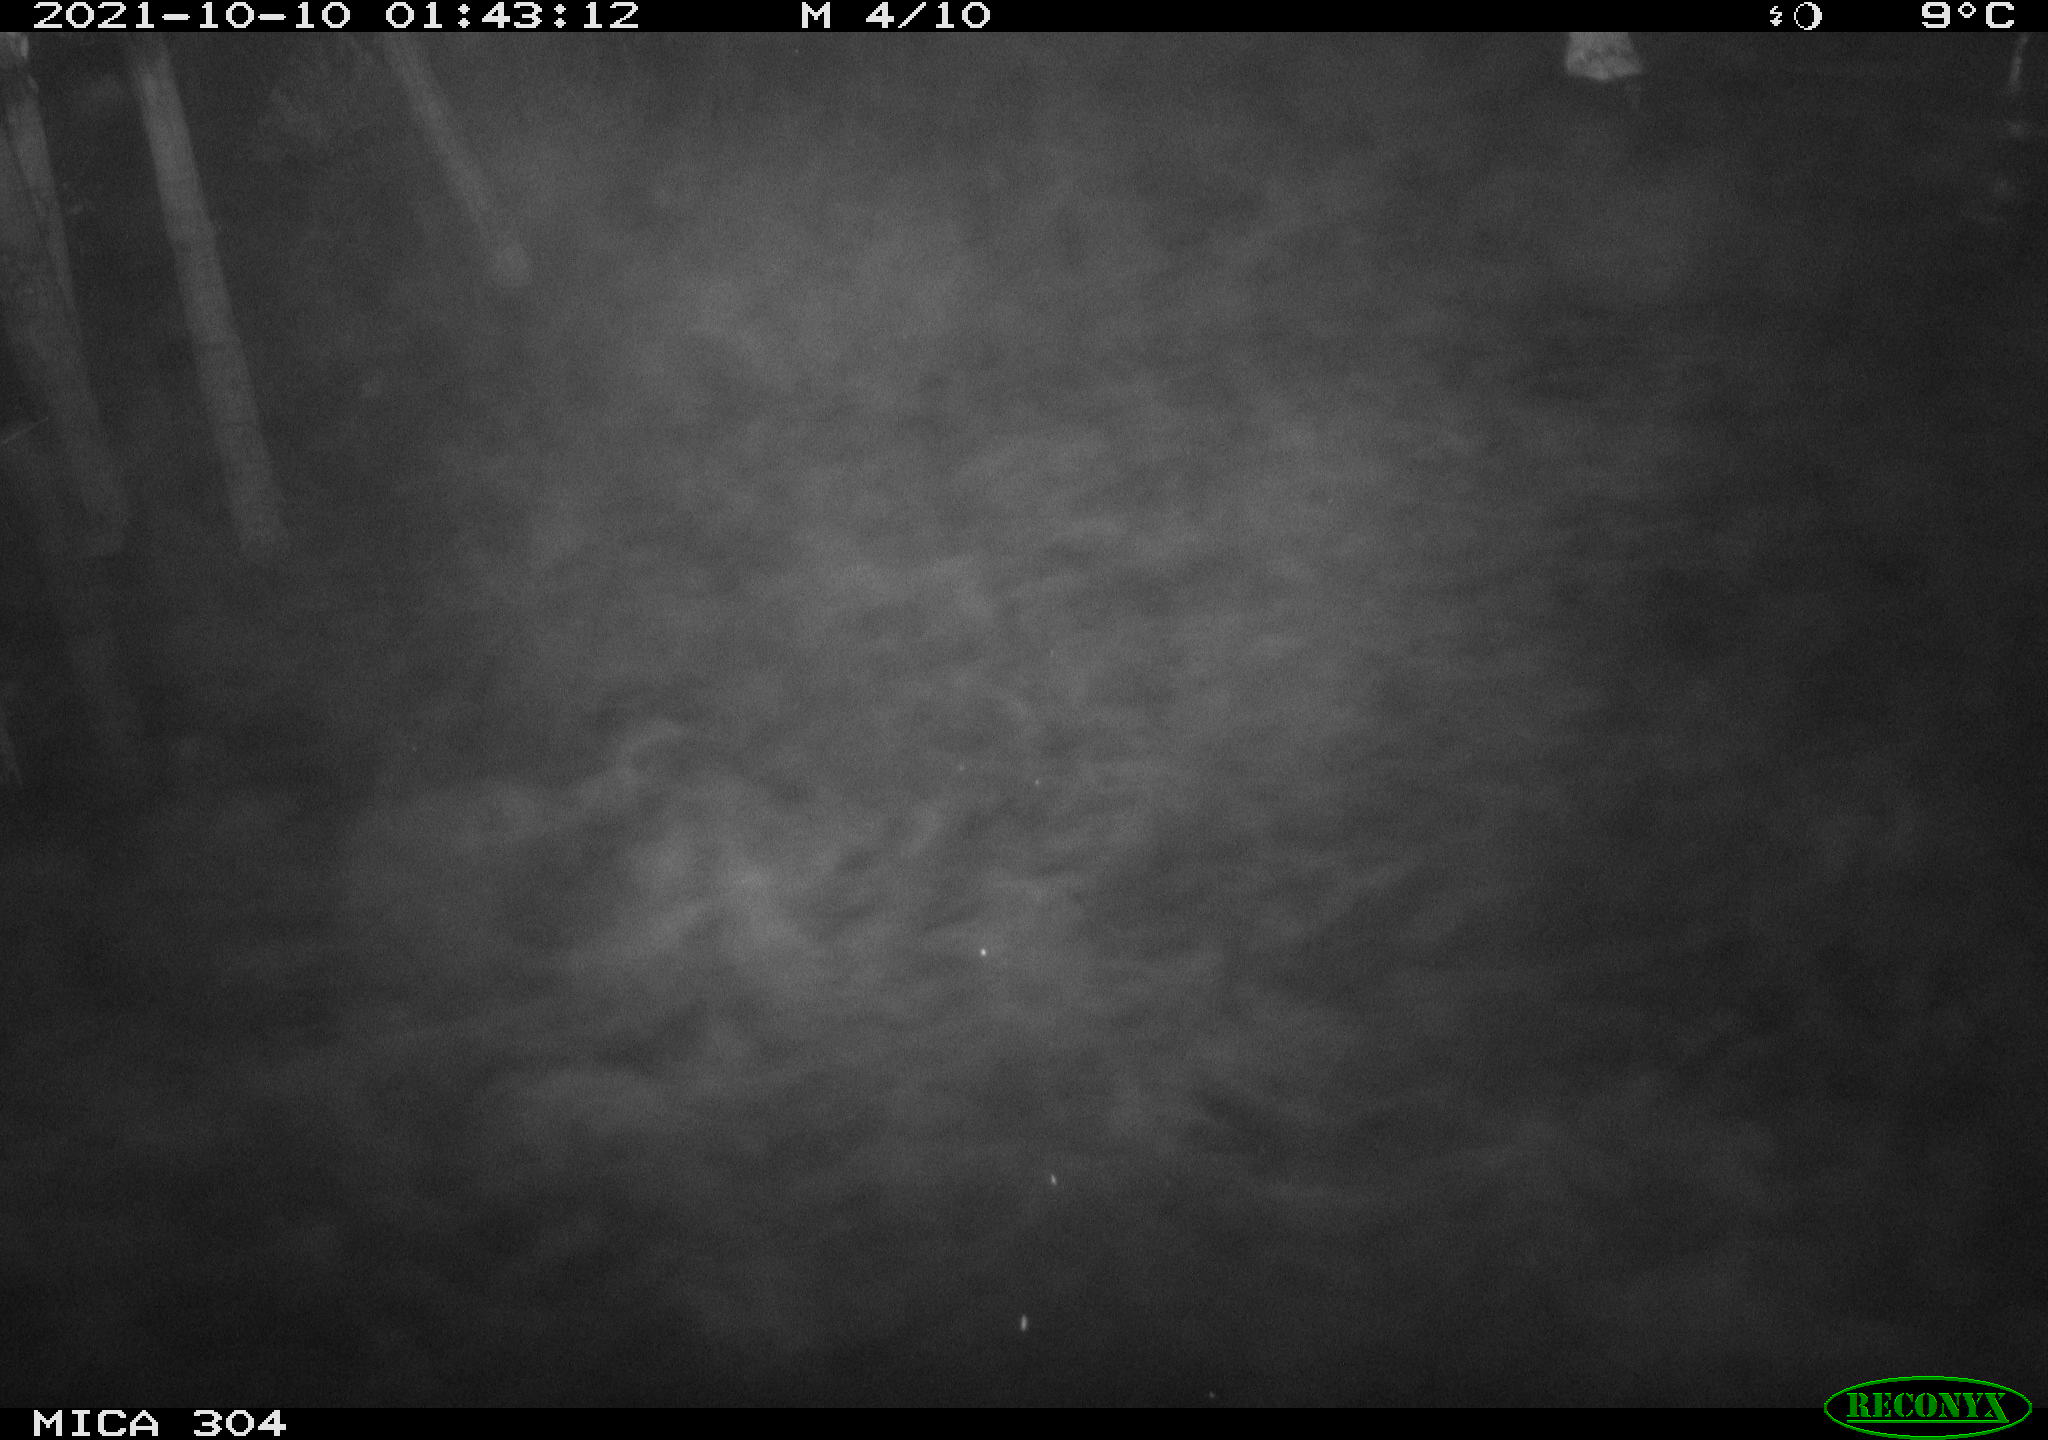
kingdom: Animalia
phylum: Chordata
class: Mammalia
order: Rodentia
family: Cricetidae
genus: Ondatra
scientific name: Ondatra zibethicus
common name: Muskrat
